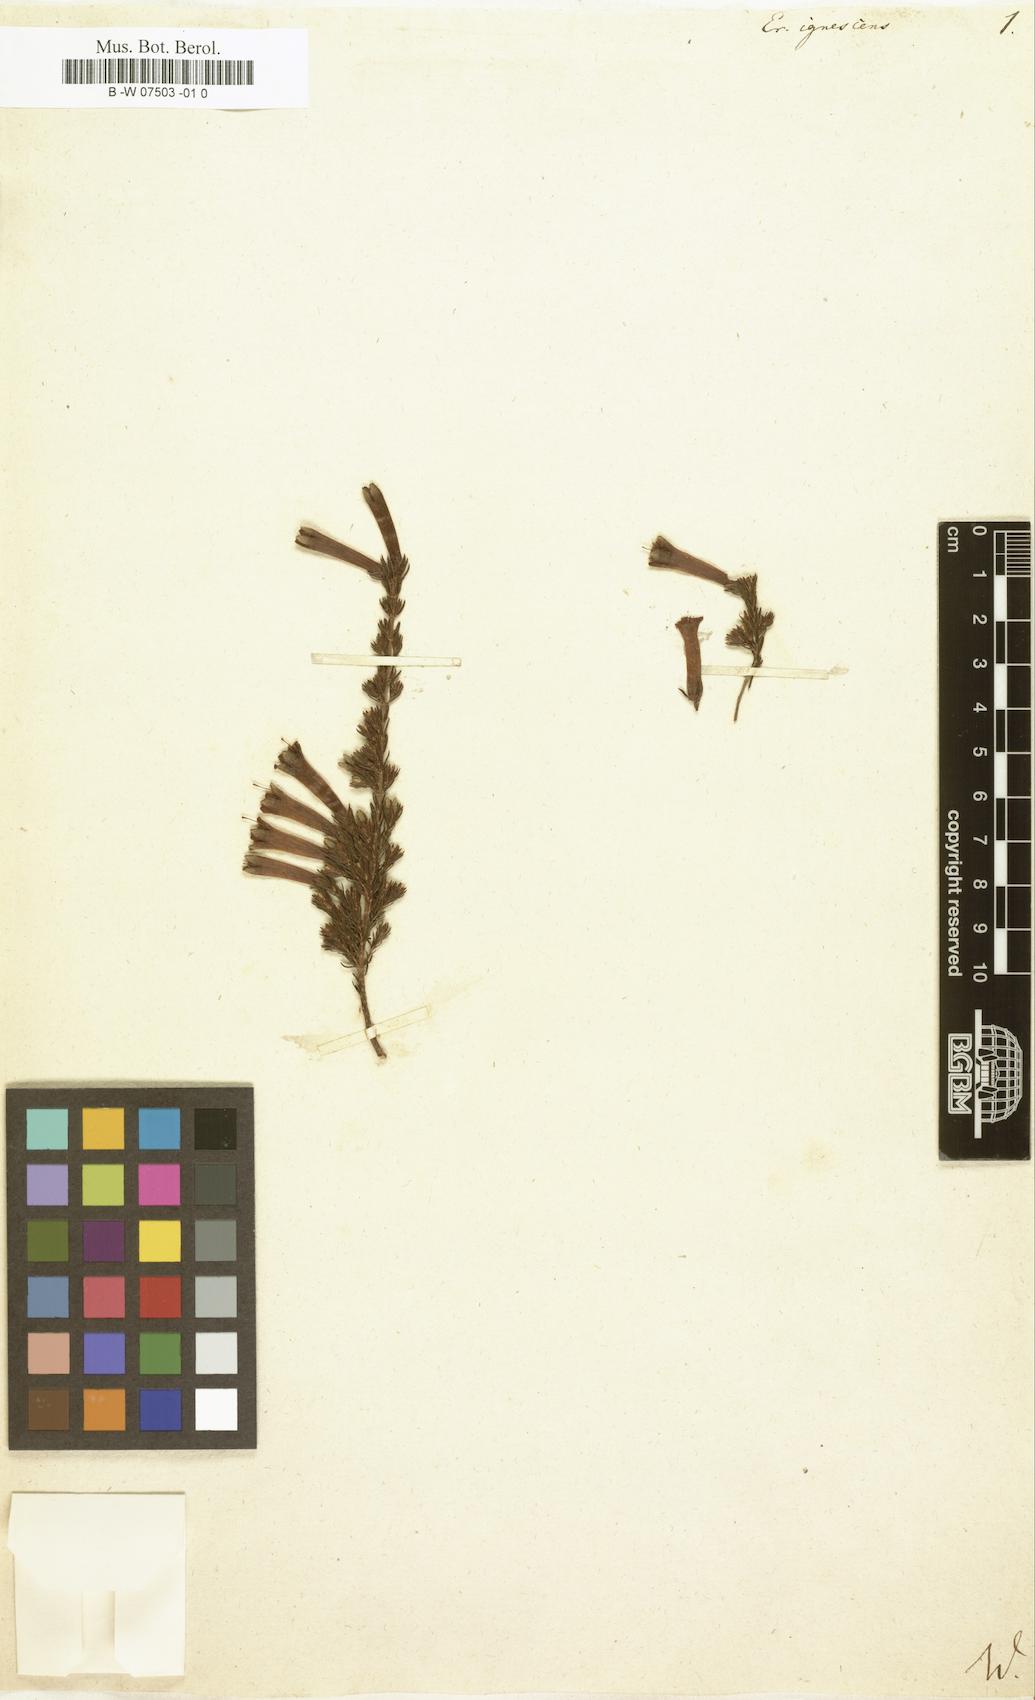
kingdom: Plantae
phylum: Tracheophyta
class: Magnoliopsida
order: Ericales
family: Ericaceae
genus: Erica
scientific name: Erica curviflora
